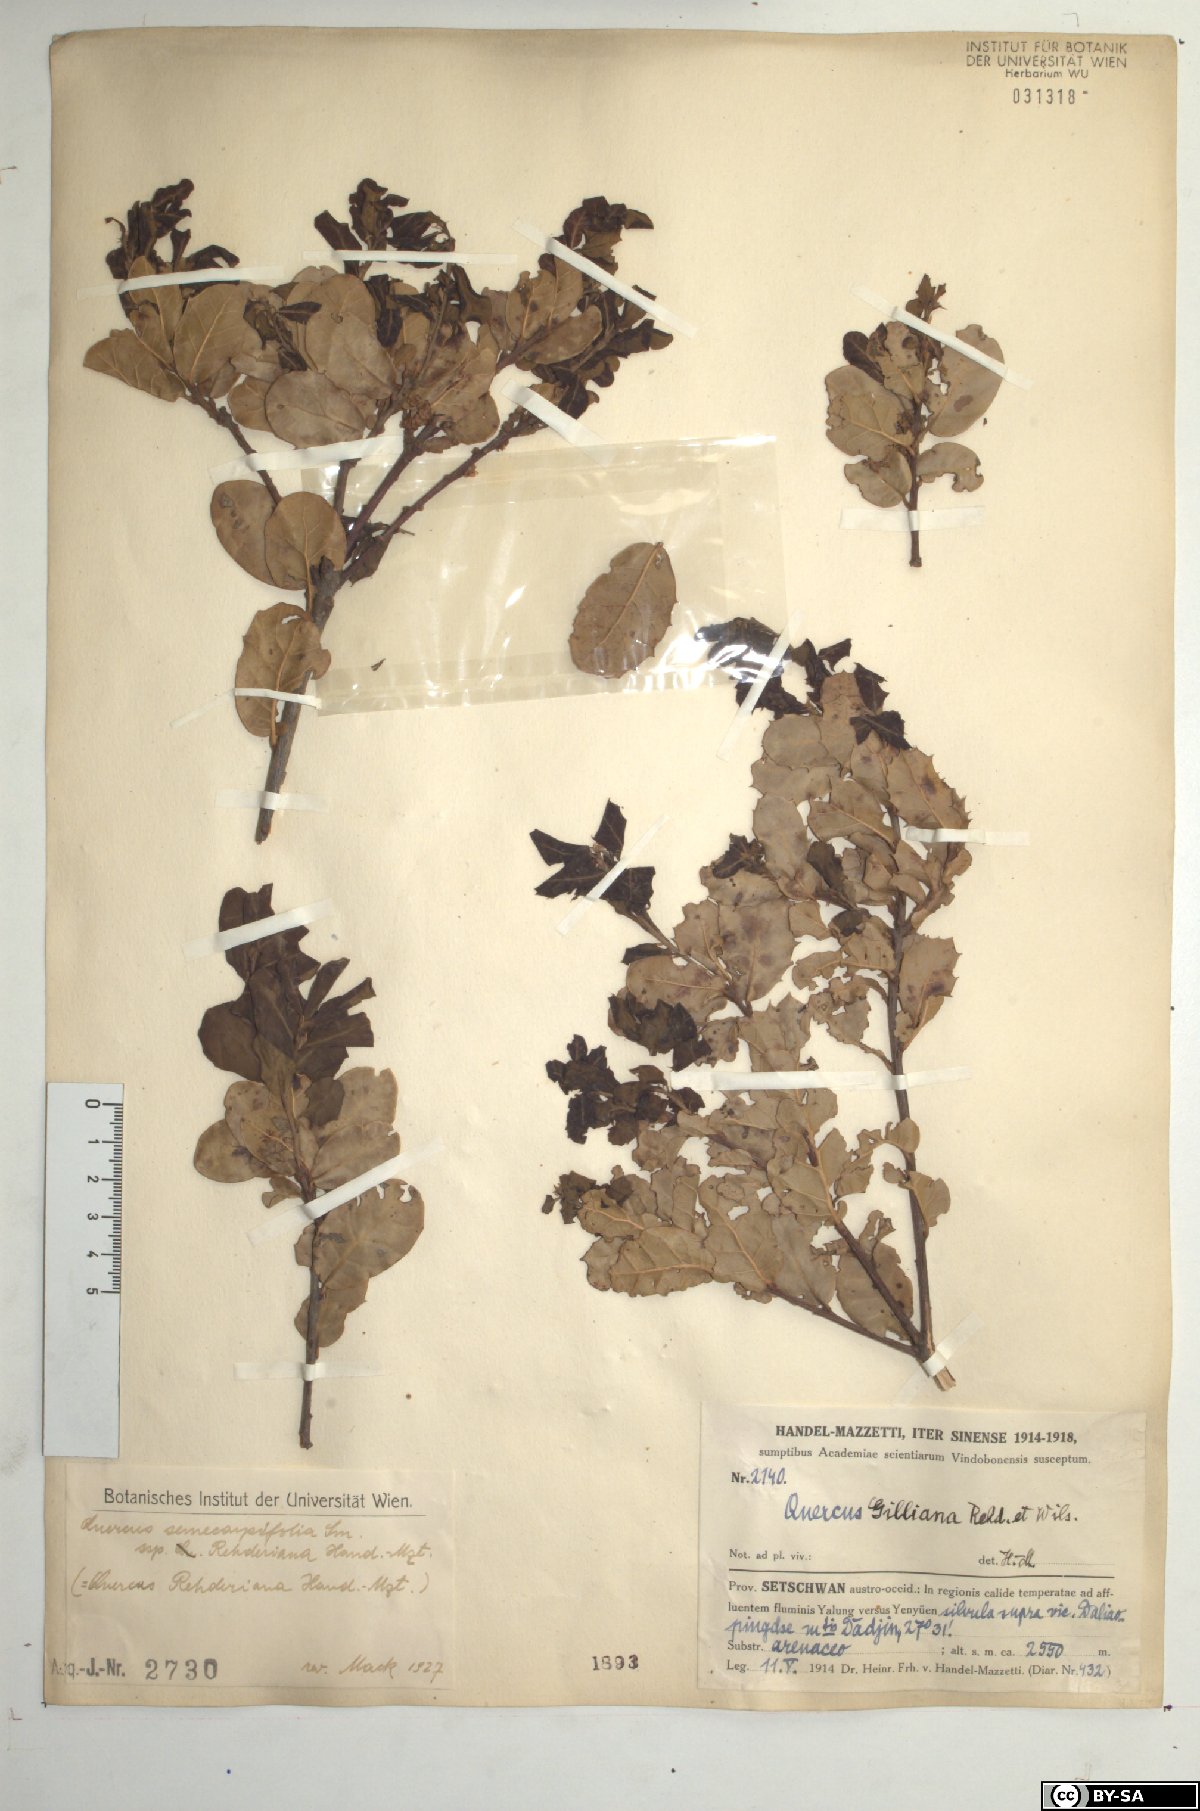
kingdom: Plantae
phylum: Tracheophyta
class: Magnoliopsida
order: Fagales
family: Fagaceae
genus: Quercus
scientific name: Quercus spinosa
